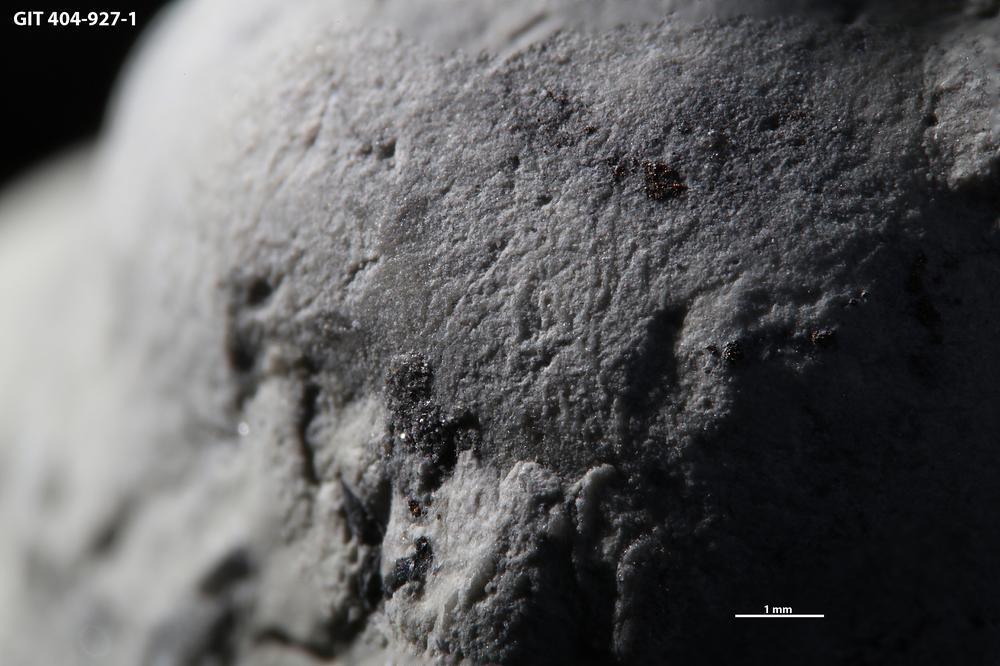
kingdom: Animalia
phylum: Annelida
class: Polychaeta
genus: Arachnostega
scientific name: Arachnostega
